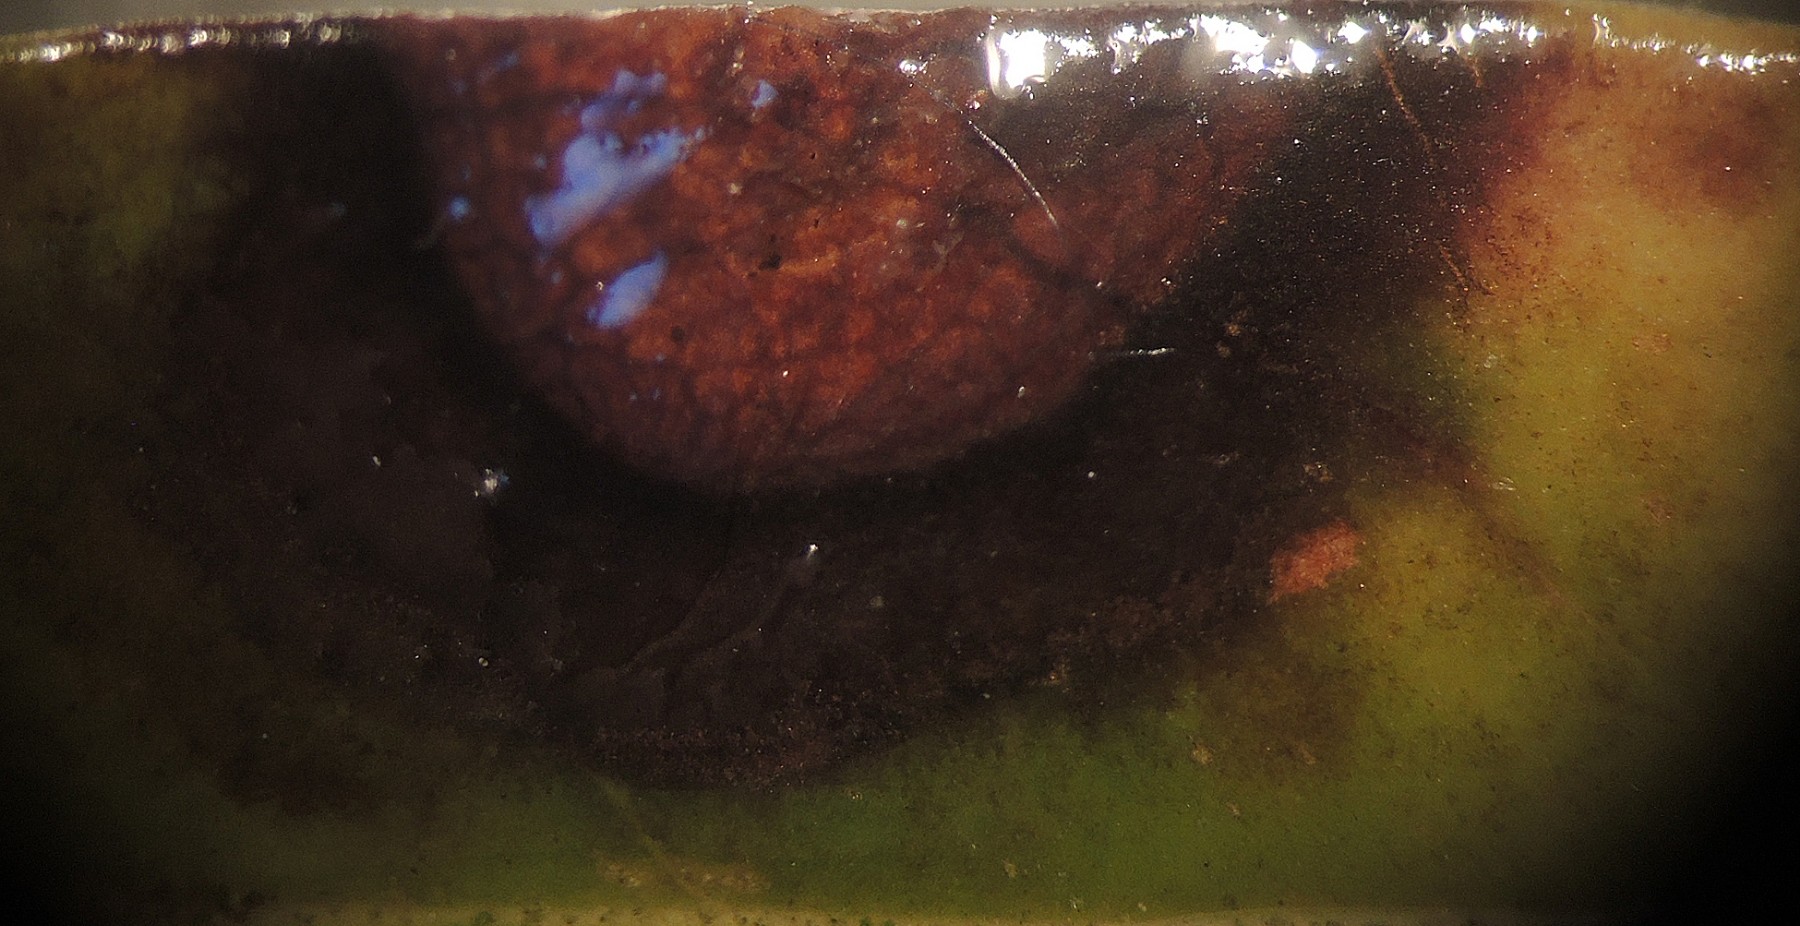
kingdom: Fungi
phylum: Ascomycota
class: Leotiomycetes
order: Helotiales
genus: Thedgonia
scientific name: Thedgonia ligustrina
